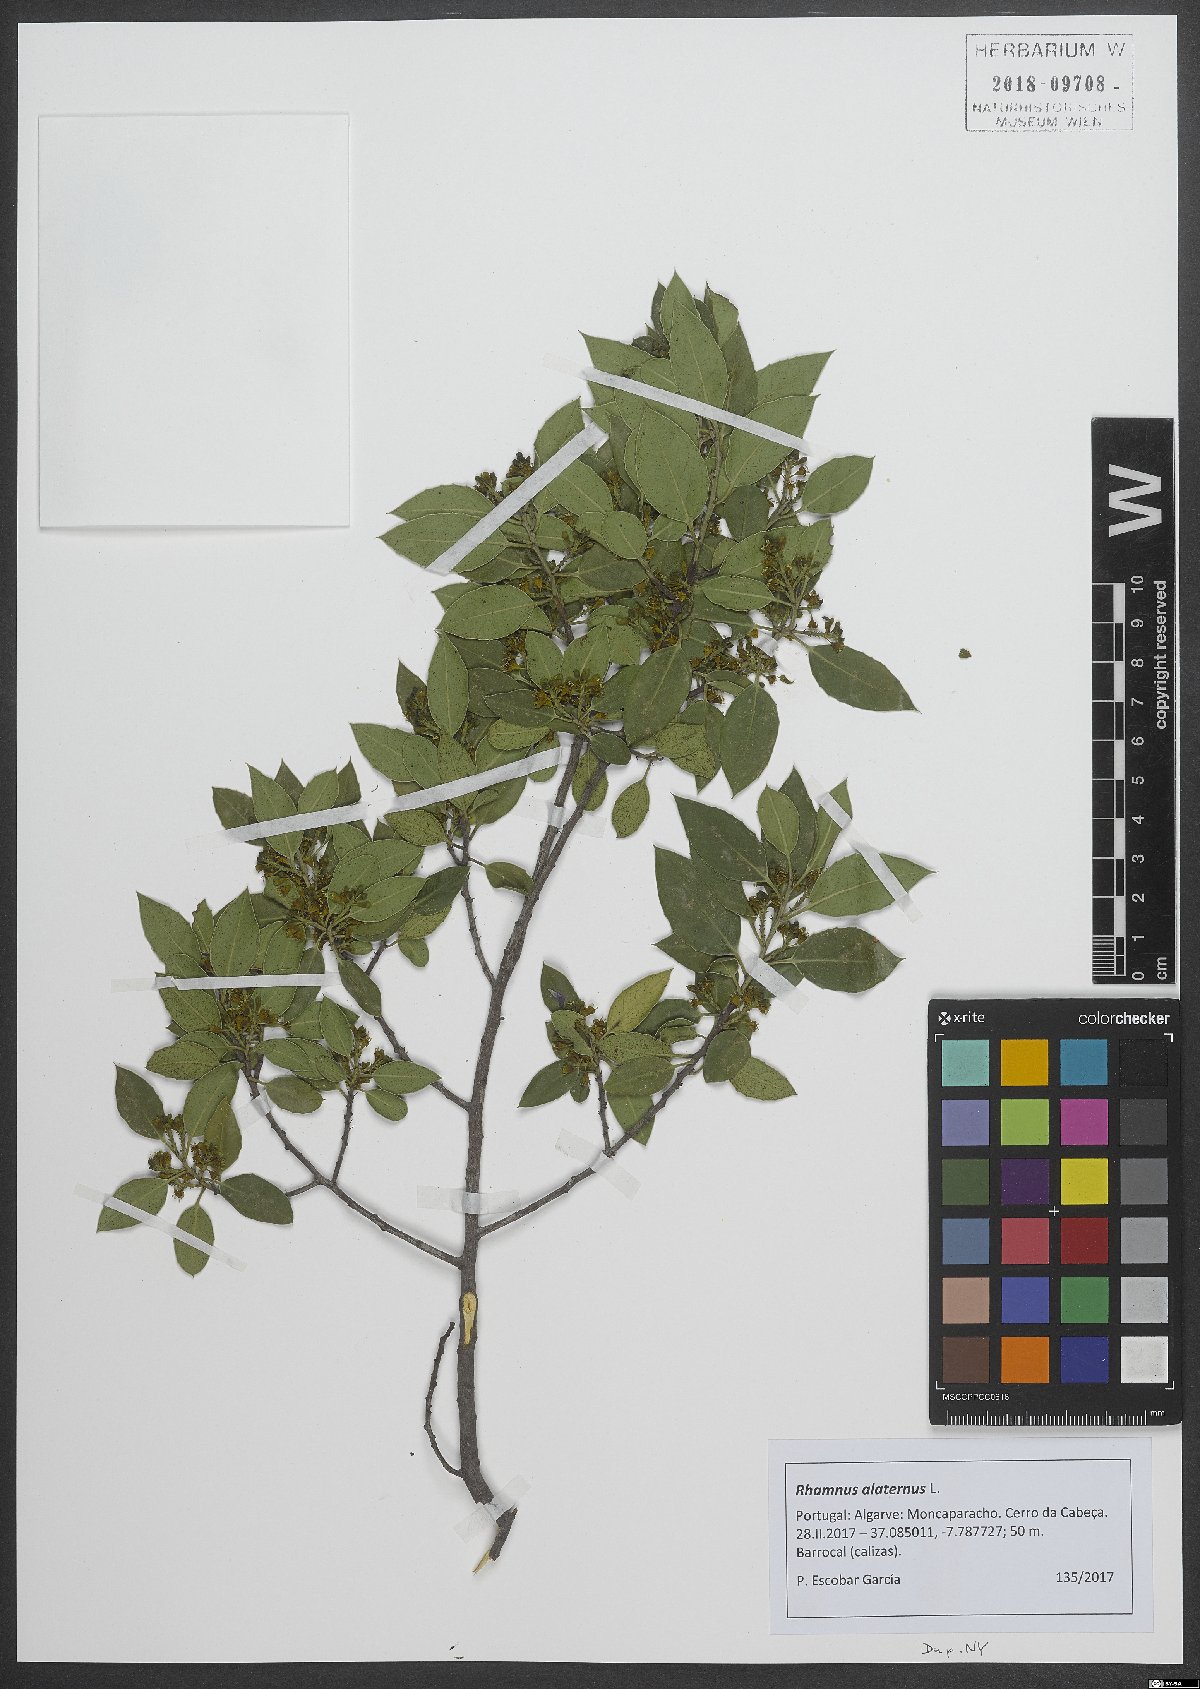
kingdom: Plantae
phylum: Tracheophyta
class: Magnoliopsida
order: Rosales
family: Rhamnaceae
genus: Rhamnus
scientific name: Rhamnus alaternus
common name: Mediterranean buckthorn
